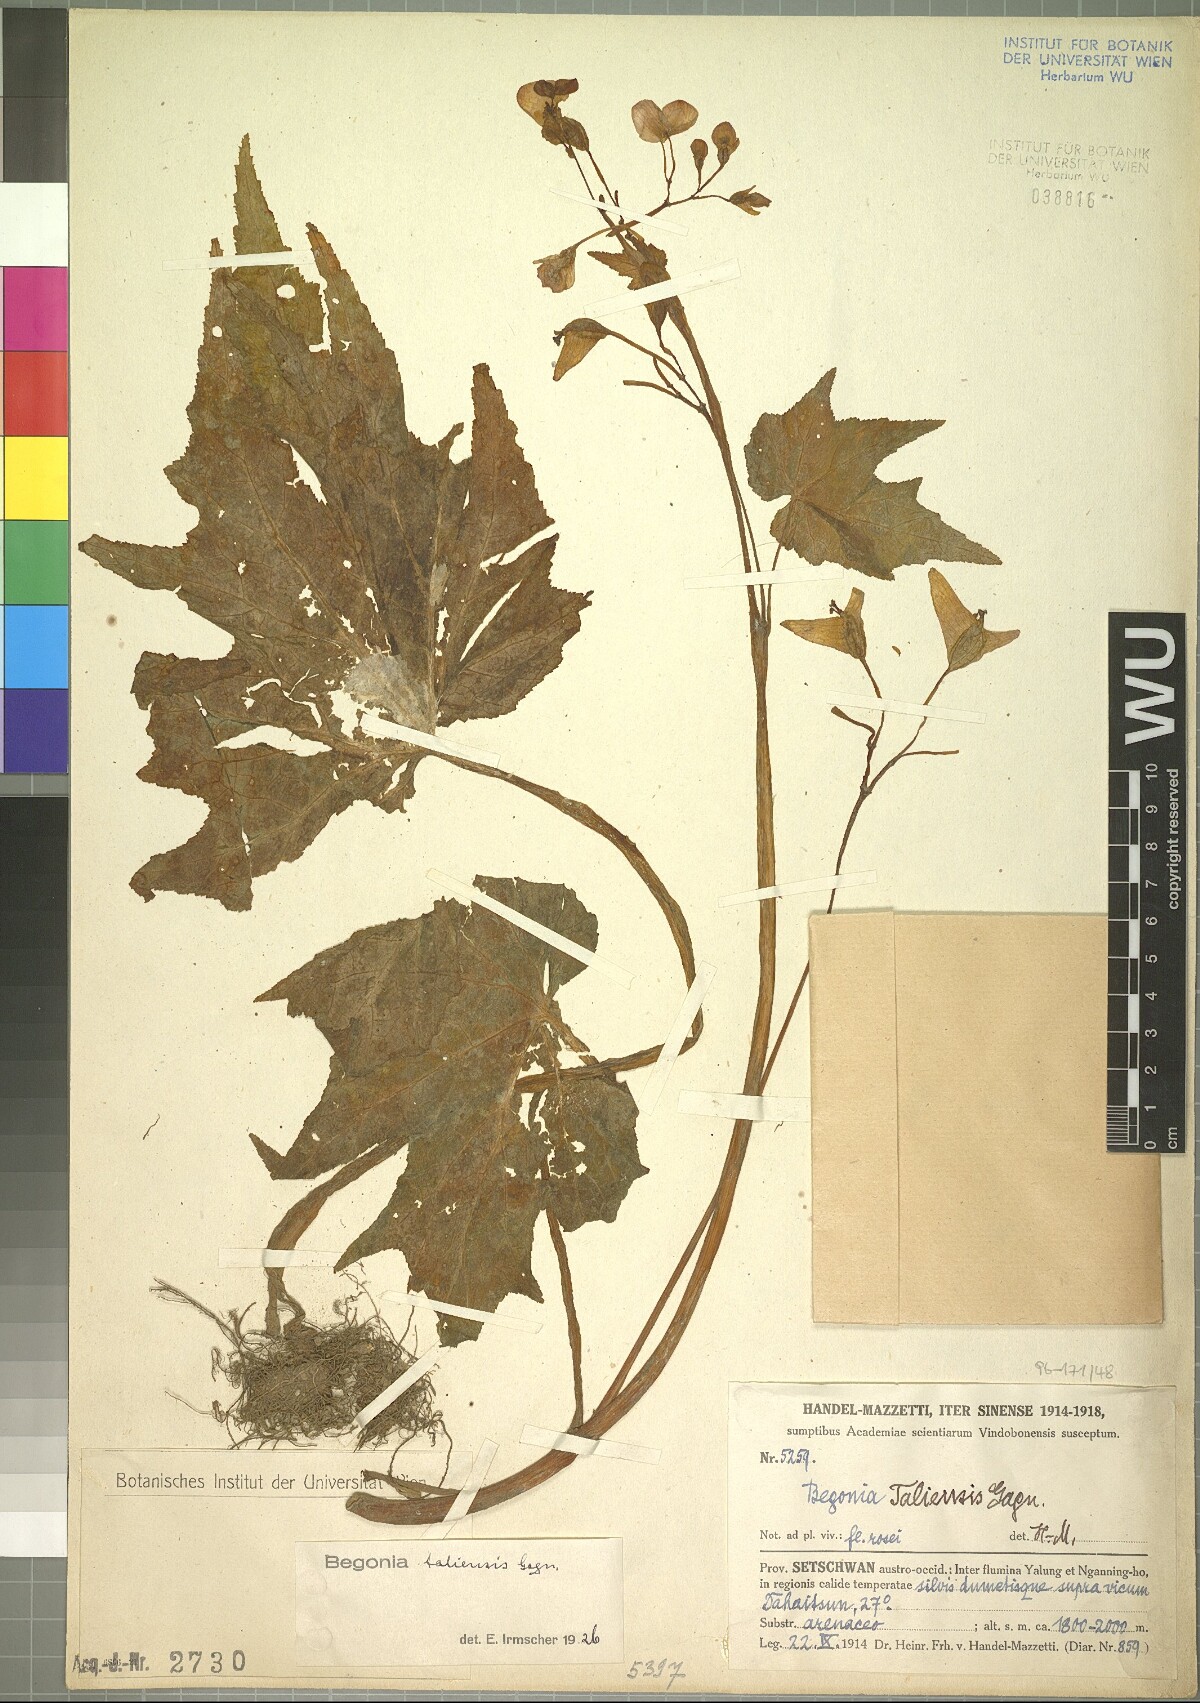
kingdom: Plantae
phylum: Tracheophyta
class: Magnoliopsida
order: Cucurbitales
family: Begoniaceae
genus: Begonia
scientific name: Begonia taliensis
